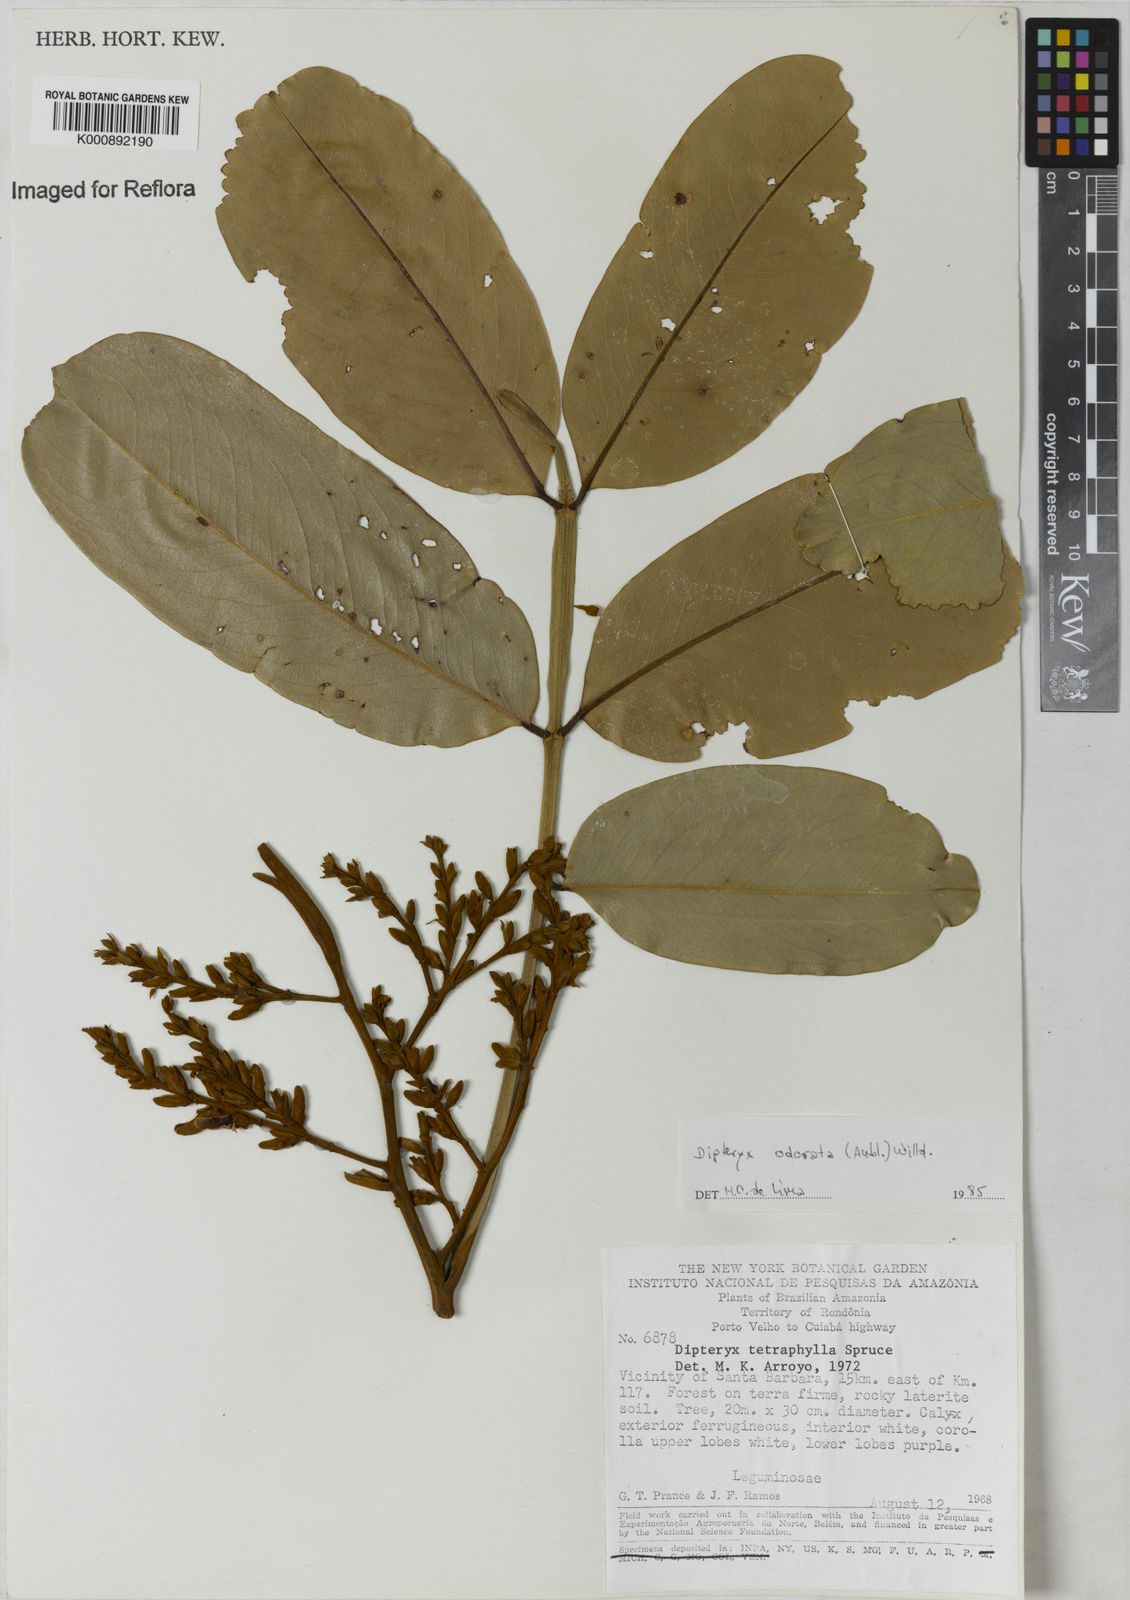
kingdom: Plantae
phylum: Tracheophyta
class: Magnoliopsida
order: Fabales
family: Fabaceae
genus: Dipteryx
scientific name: Dipteryx
